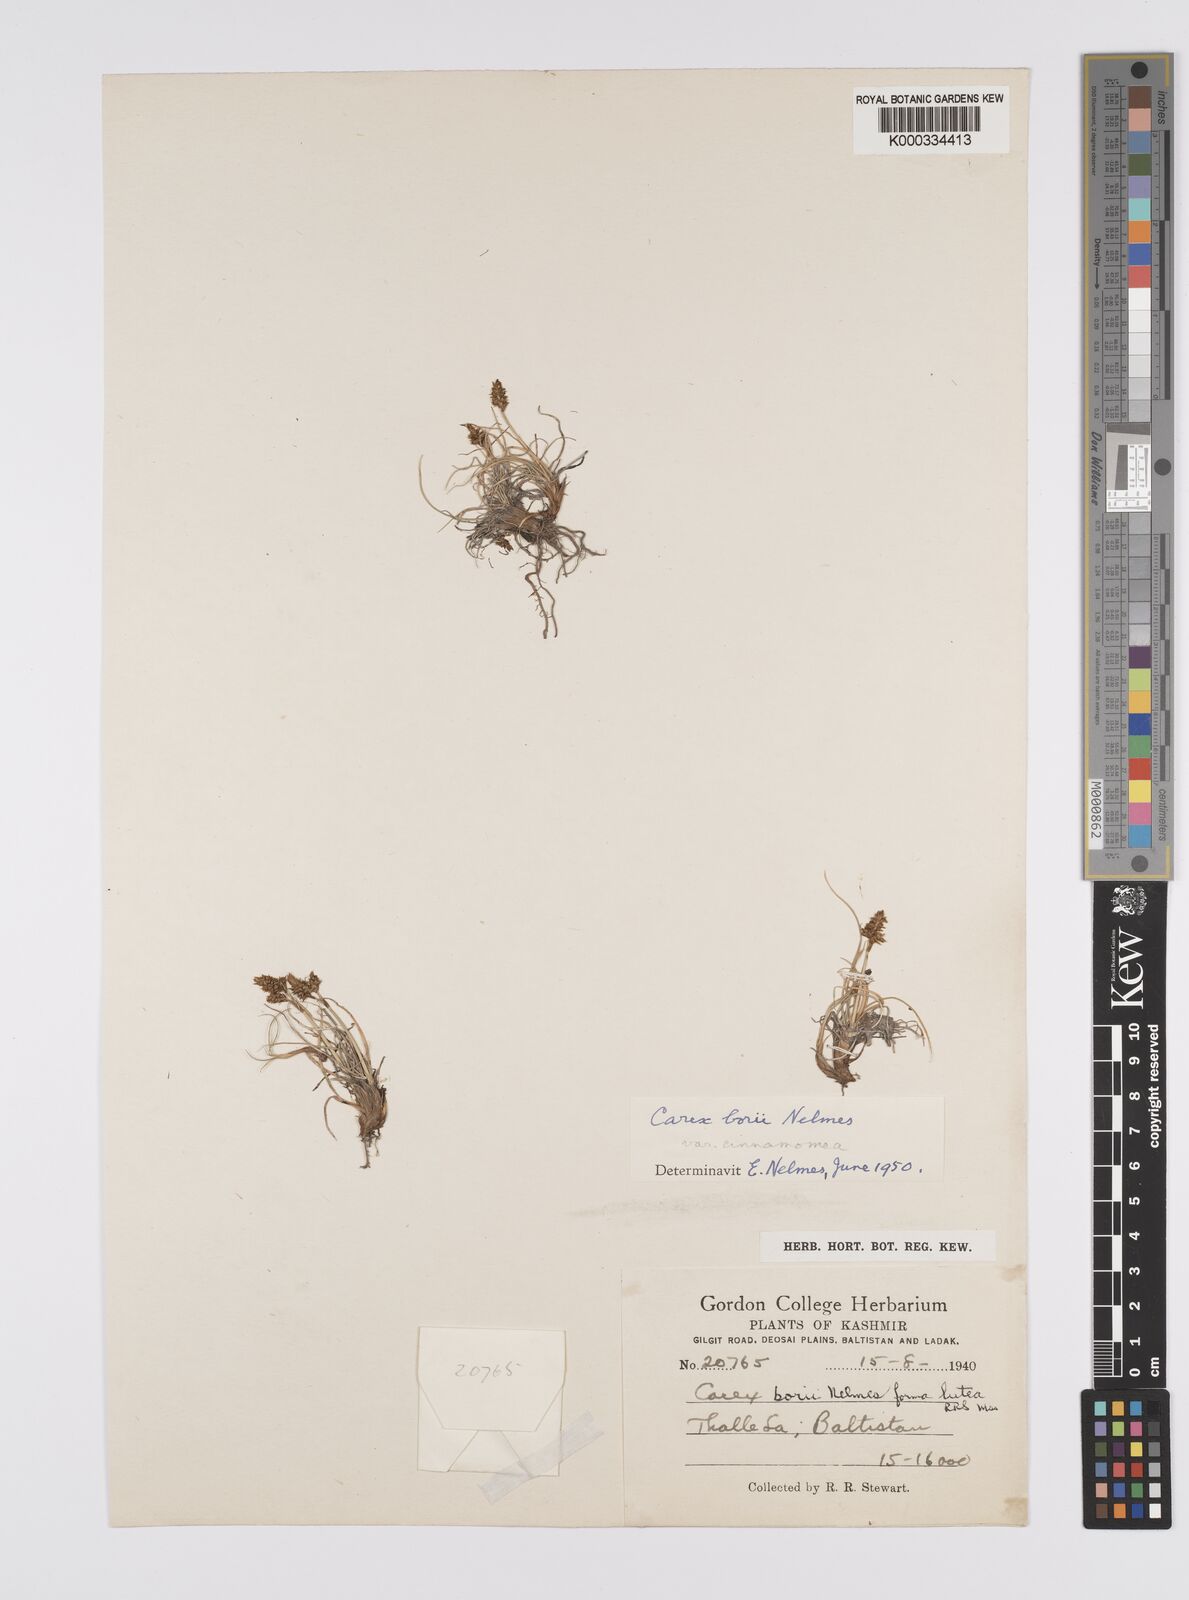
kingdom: Plantae
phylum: Tracheophyta
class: Liliopsida
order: Poales
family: Cyperaceae
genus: Carex
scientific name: Carex borii
